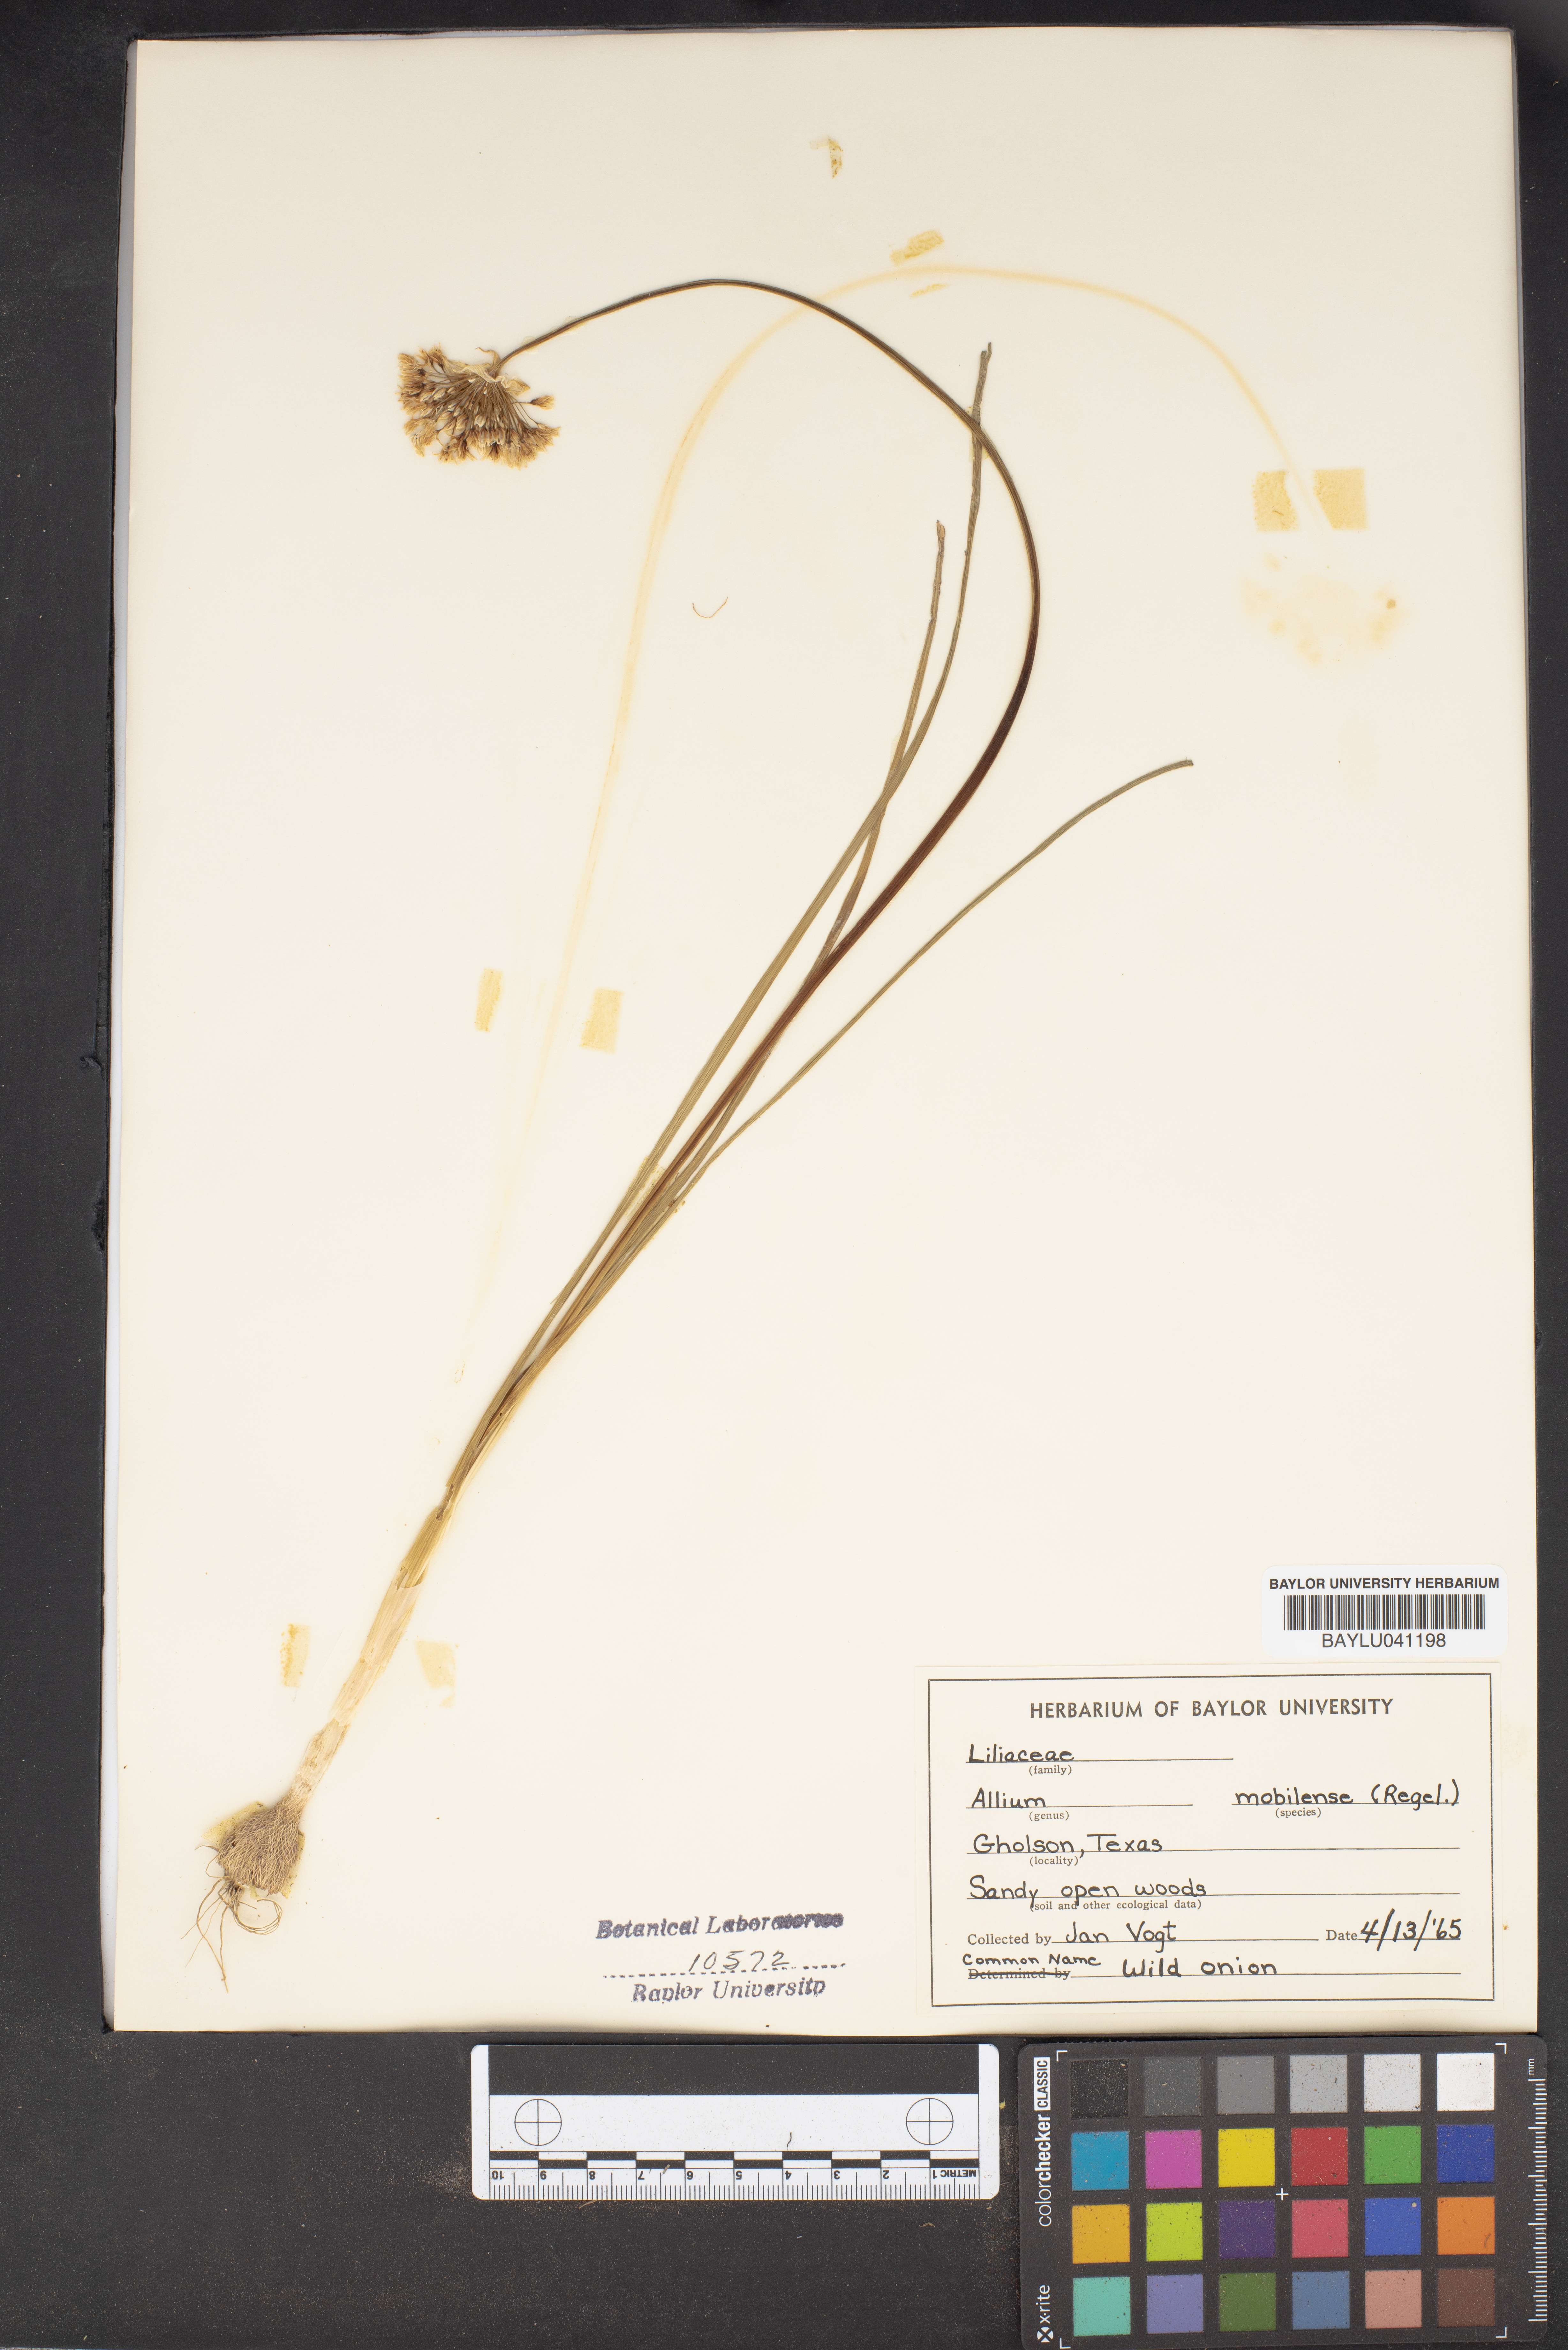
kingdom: Plantae
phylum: Tracheophyta
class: Liliopsida
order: Asparagales
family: Amaryllidaceae
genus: Allium
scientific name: Allium canadense
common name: Meadow garlic
